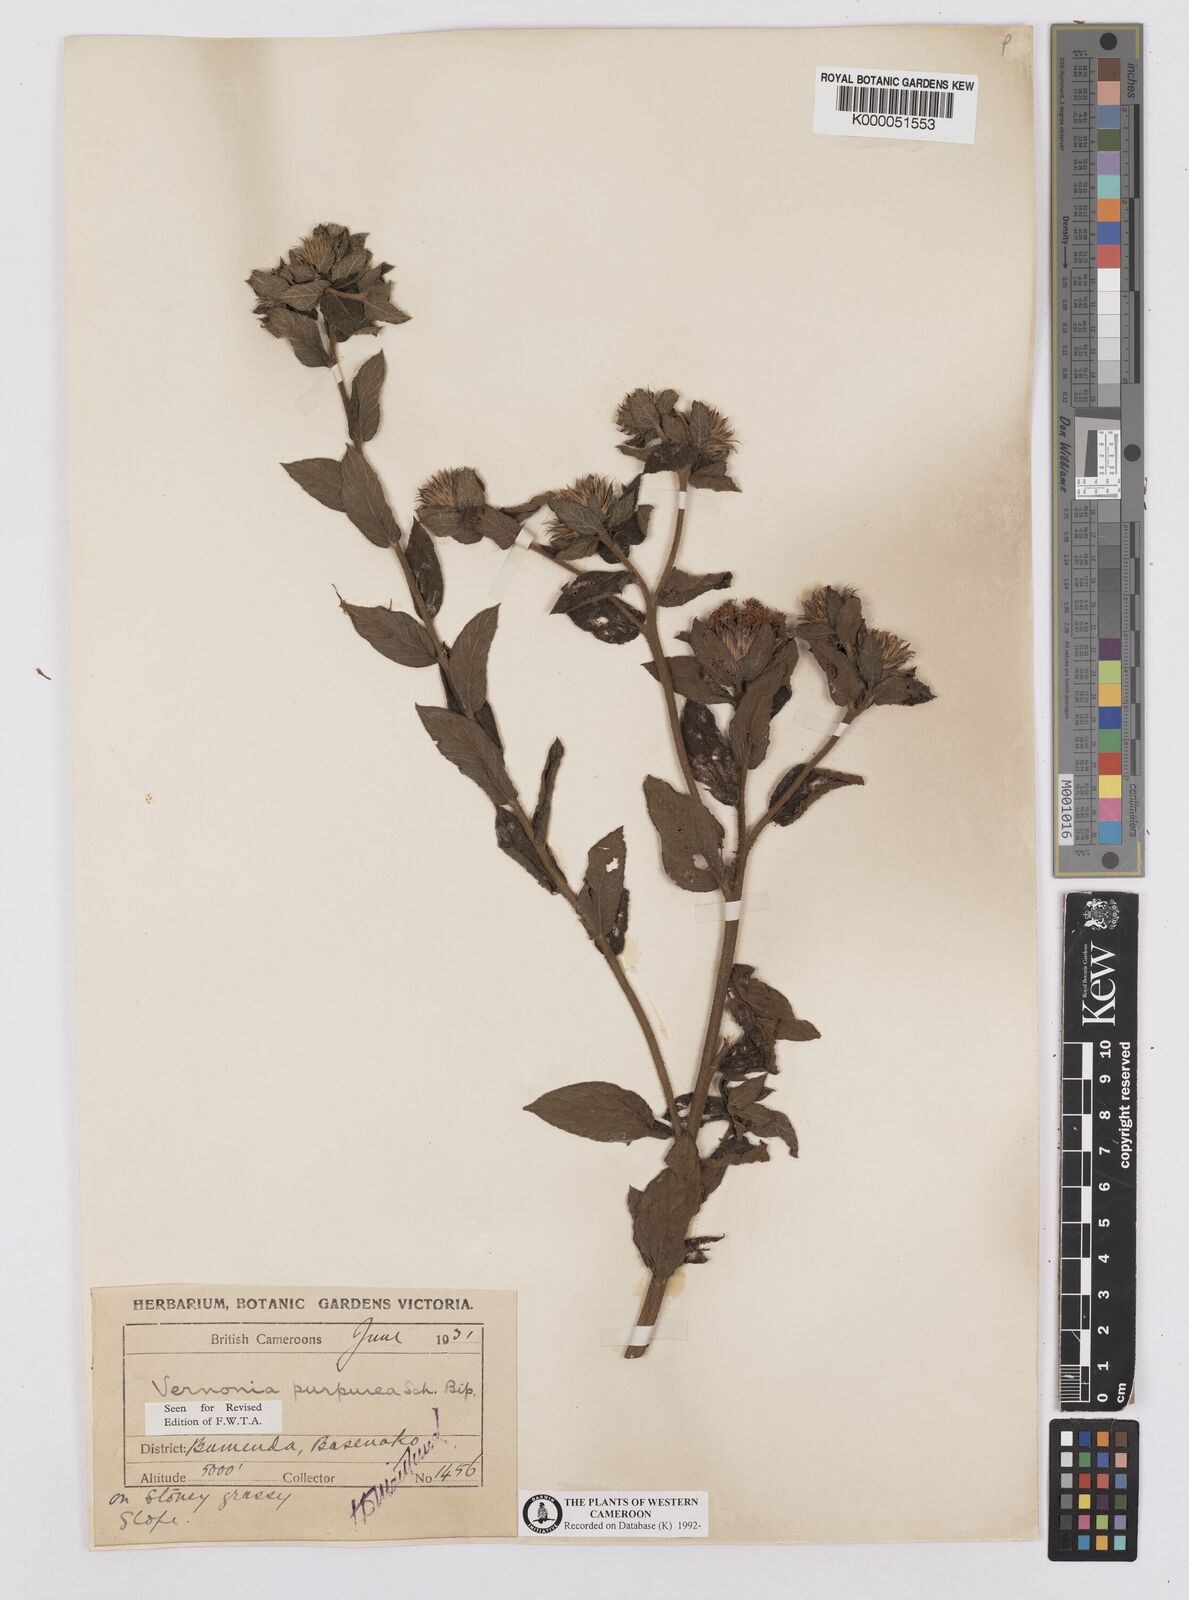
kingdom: Plantae
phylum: Tracheophyta
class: Magnoliopsida
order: Asterales
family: Asteraceae
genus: Vernonia
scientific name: Vernonia
